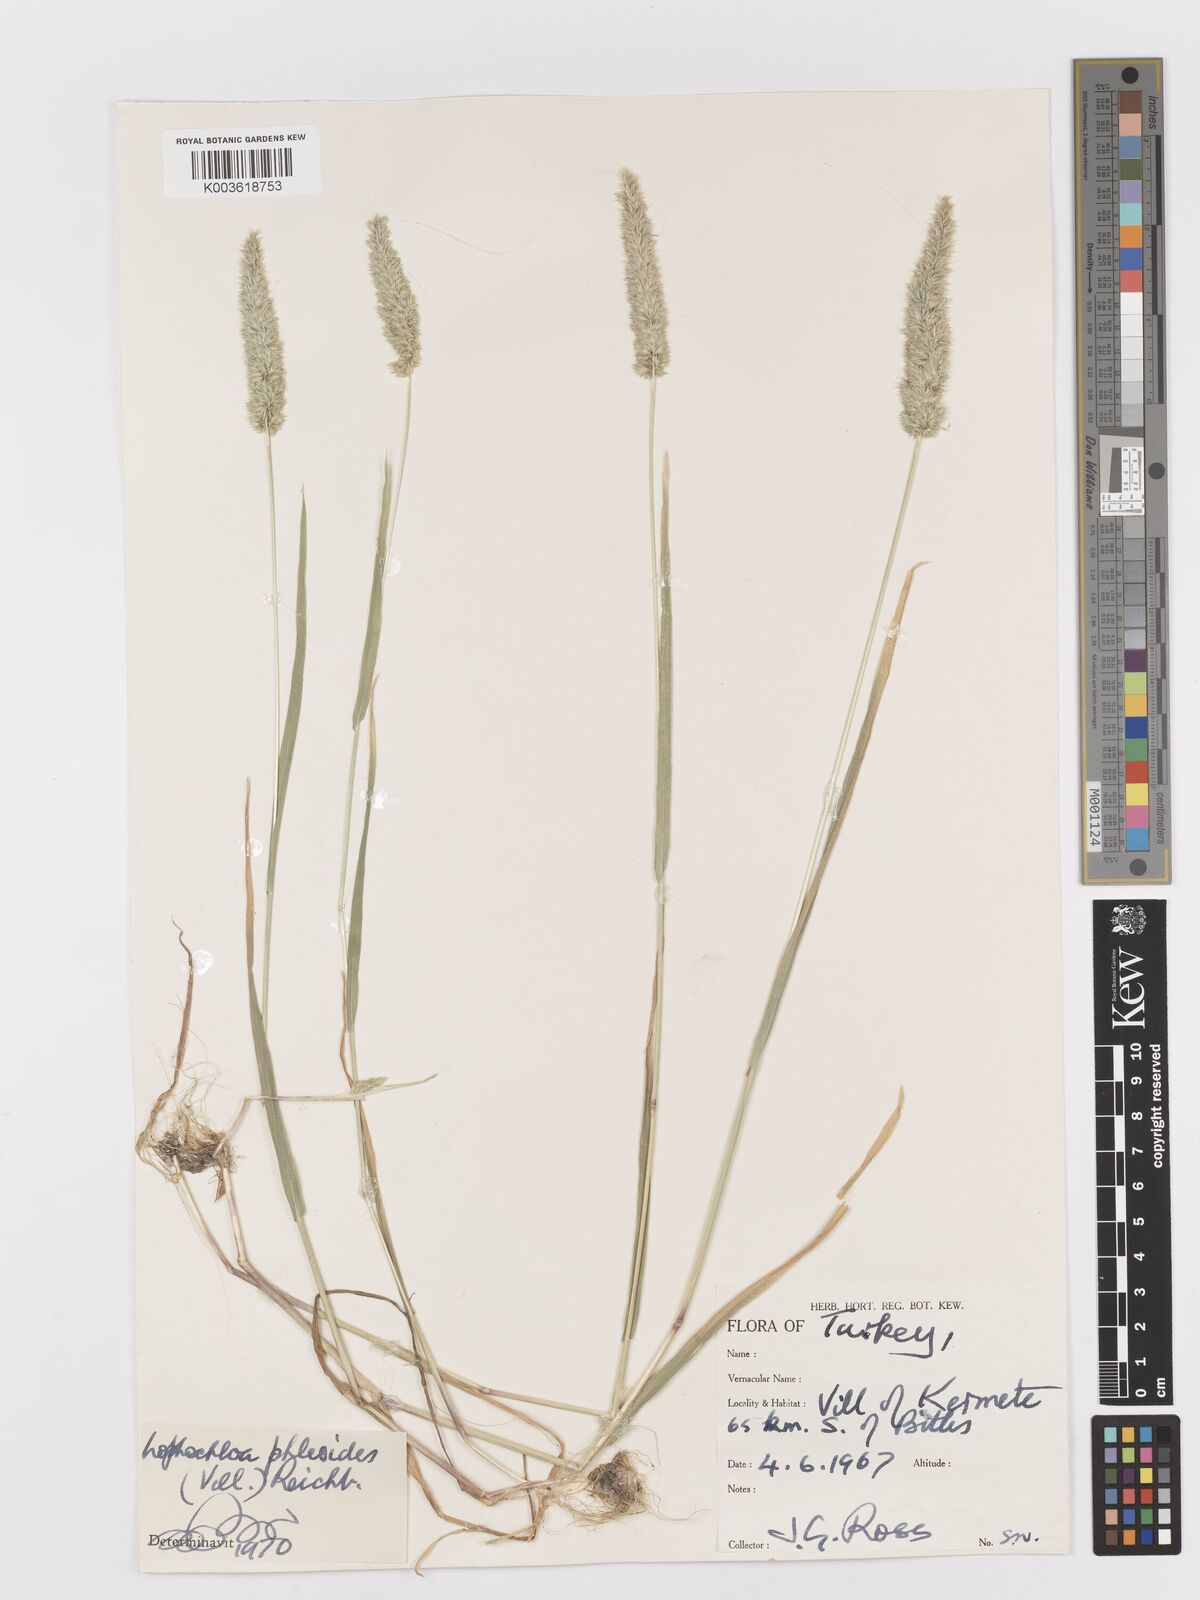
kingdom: Plantae
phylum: Tracheophyta
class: Liliopsida
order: Poales
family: Poaceae
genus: Rostraria
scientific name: Rostraria cristata
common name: Mediterranean hair-grass
